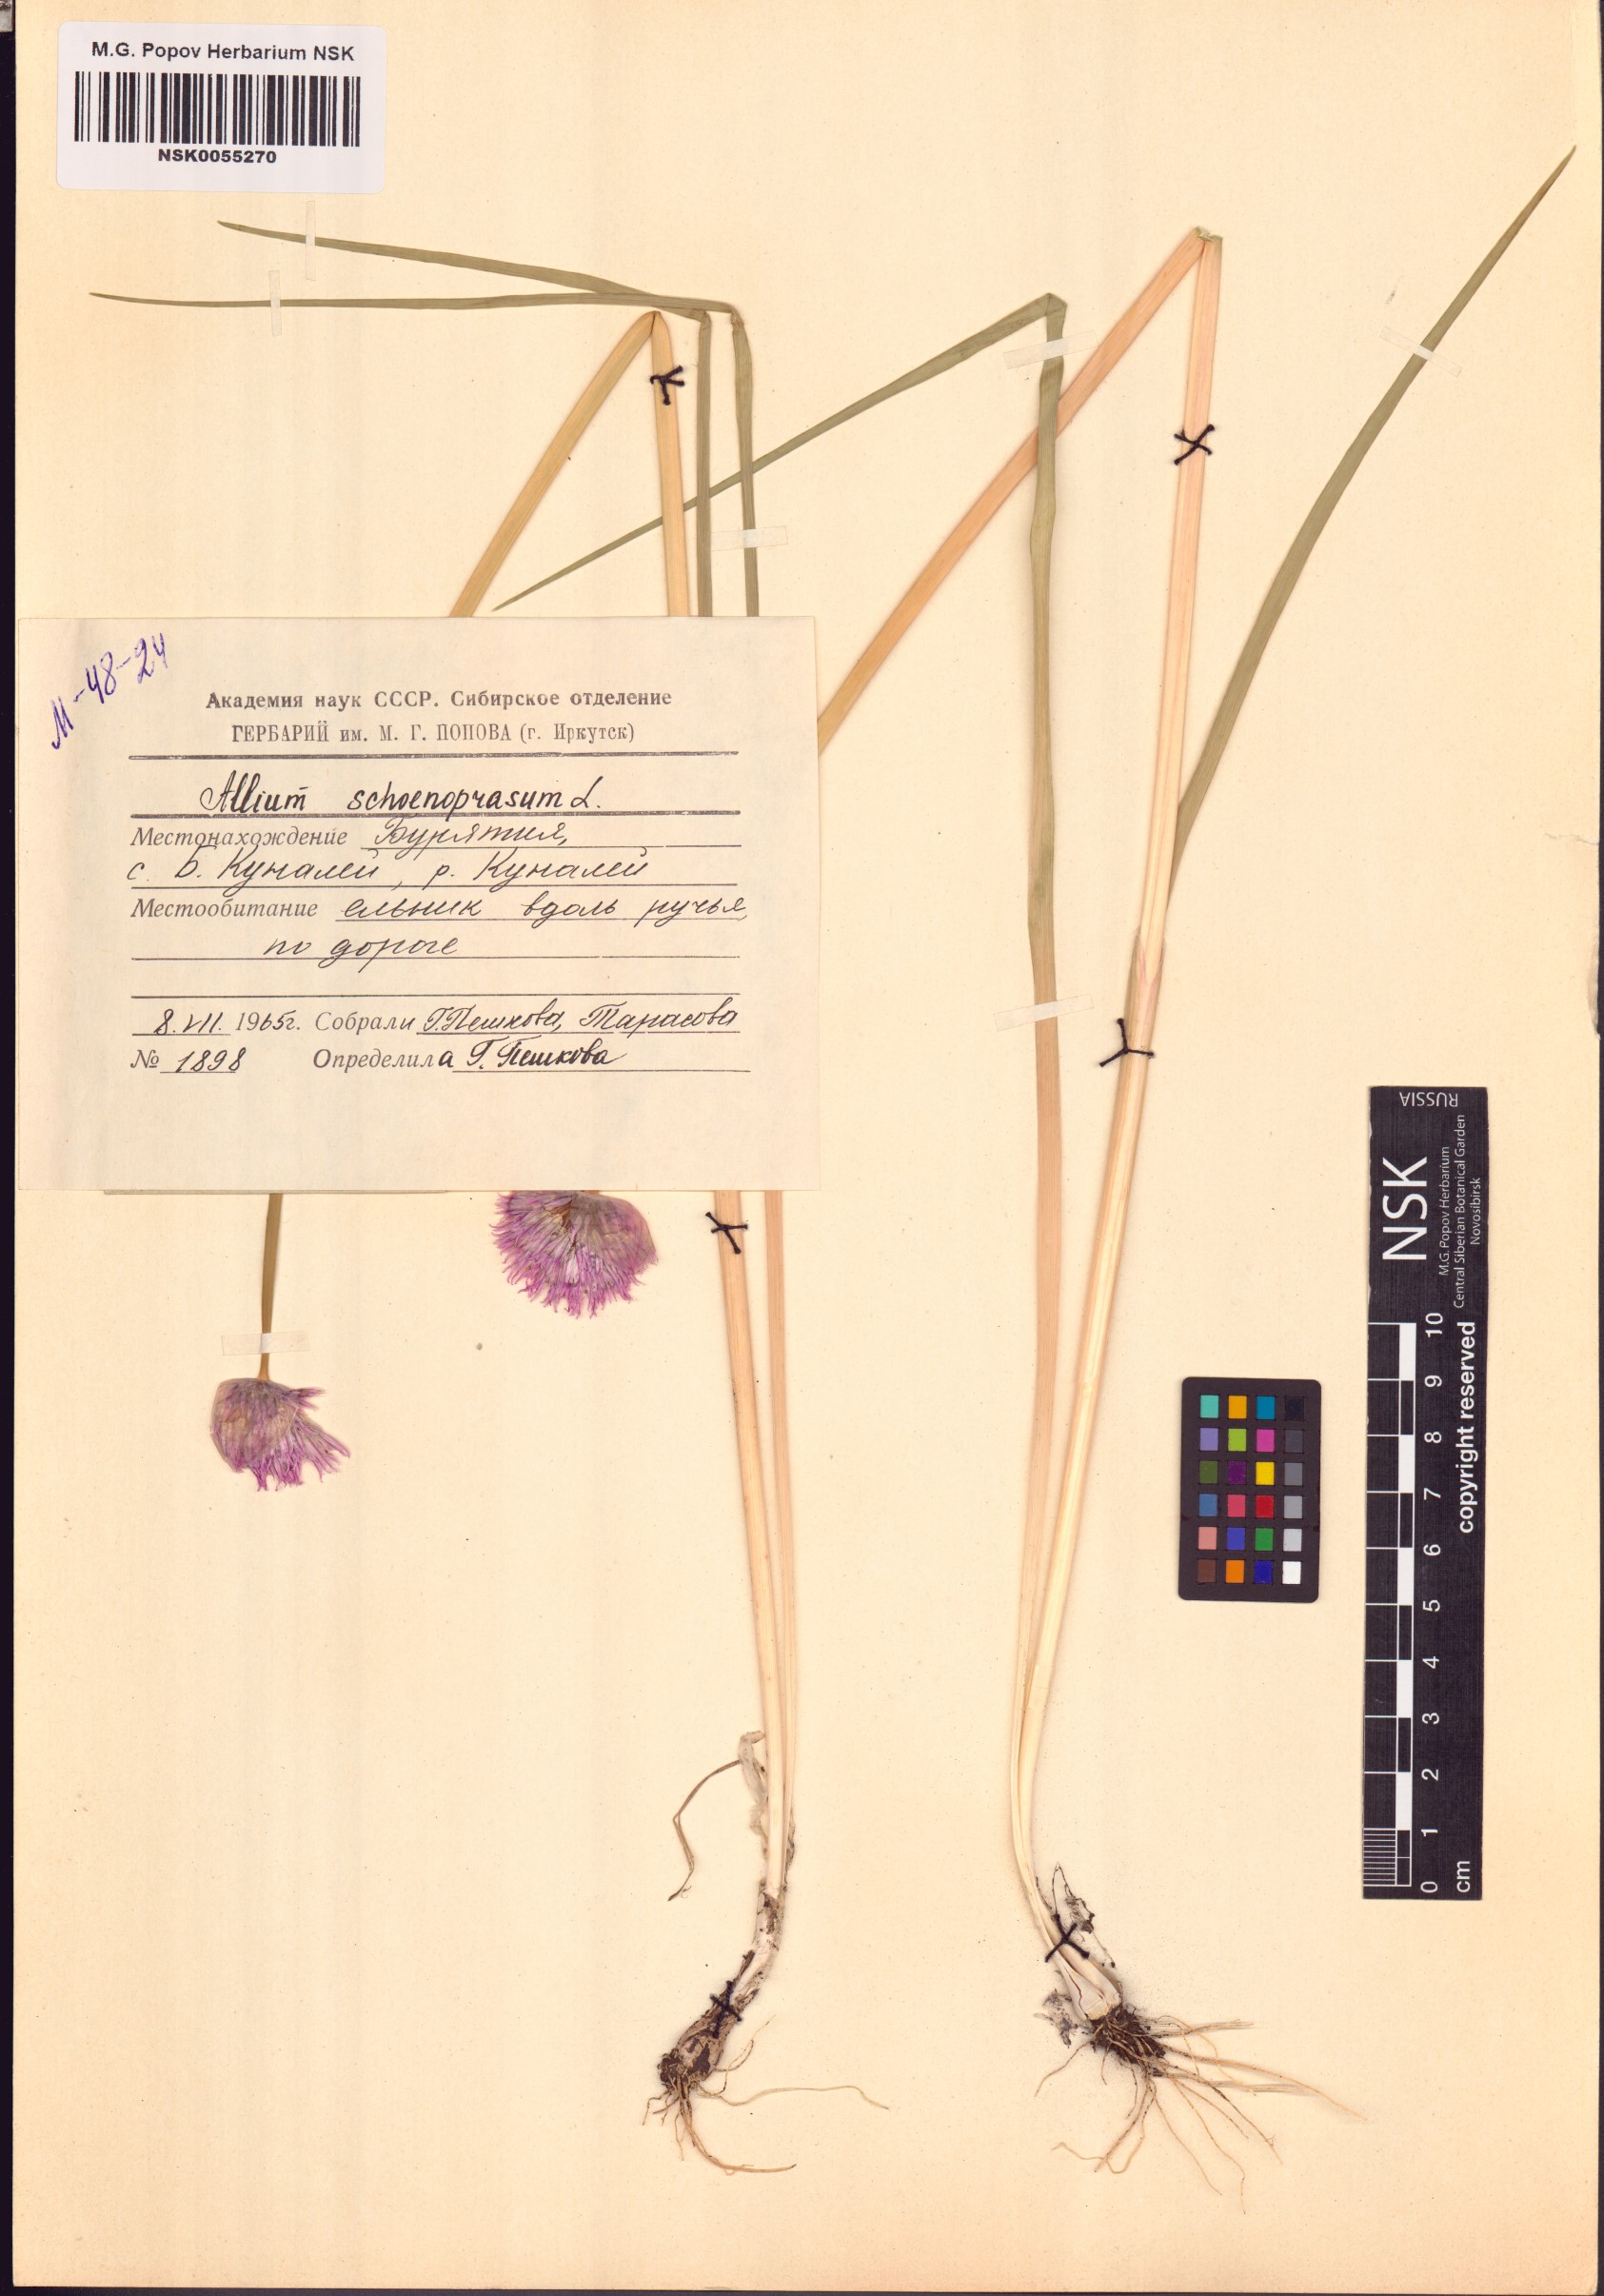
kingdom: Plantae
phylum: Tracheophyta
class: Liliopsida
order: Asparagales
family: Amaryllidaceae
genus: Allium
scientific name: Allium schoenoprasum
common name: Chives
